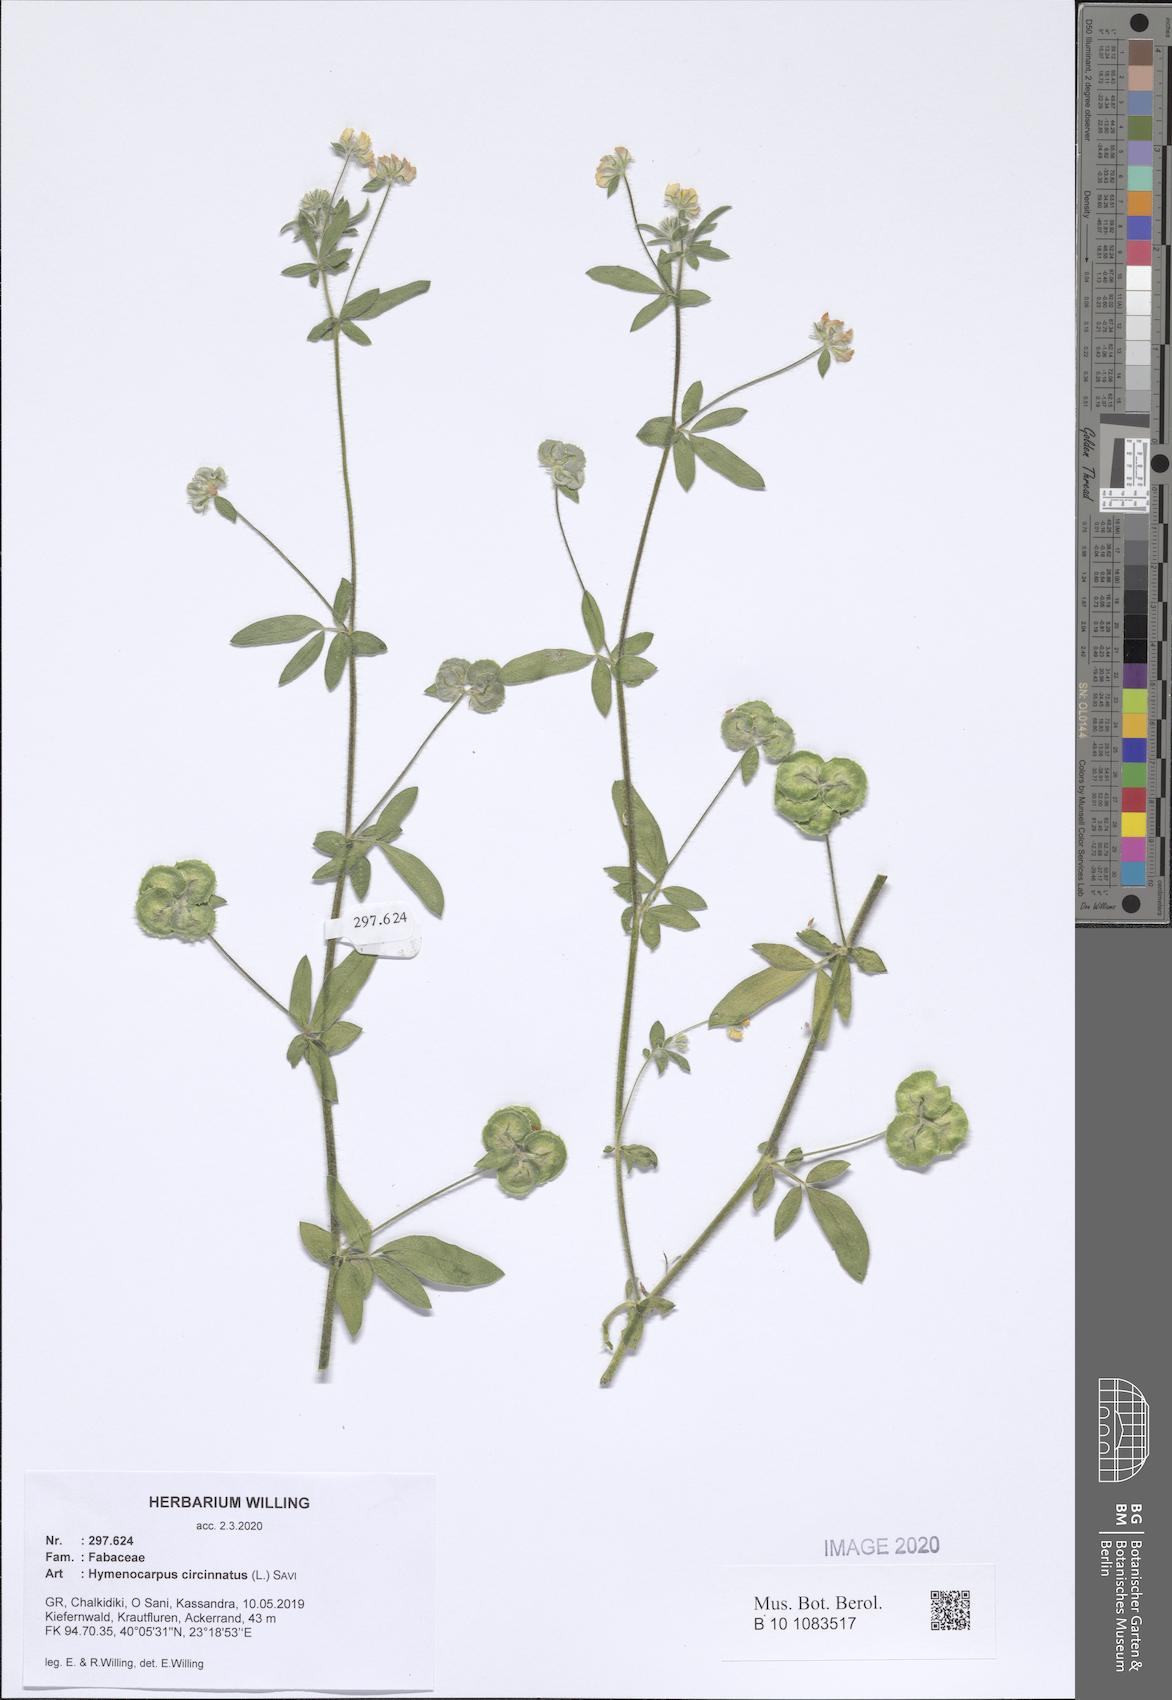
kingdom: Plantae
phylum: Tracheophyta
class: Magnoliopsida
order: Fabales
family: Fabaceae
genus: Anthyllis
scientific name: Anthyllis circinnata
